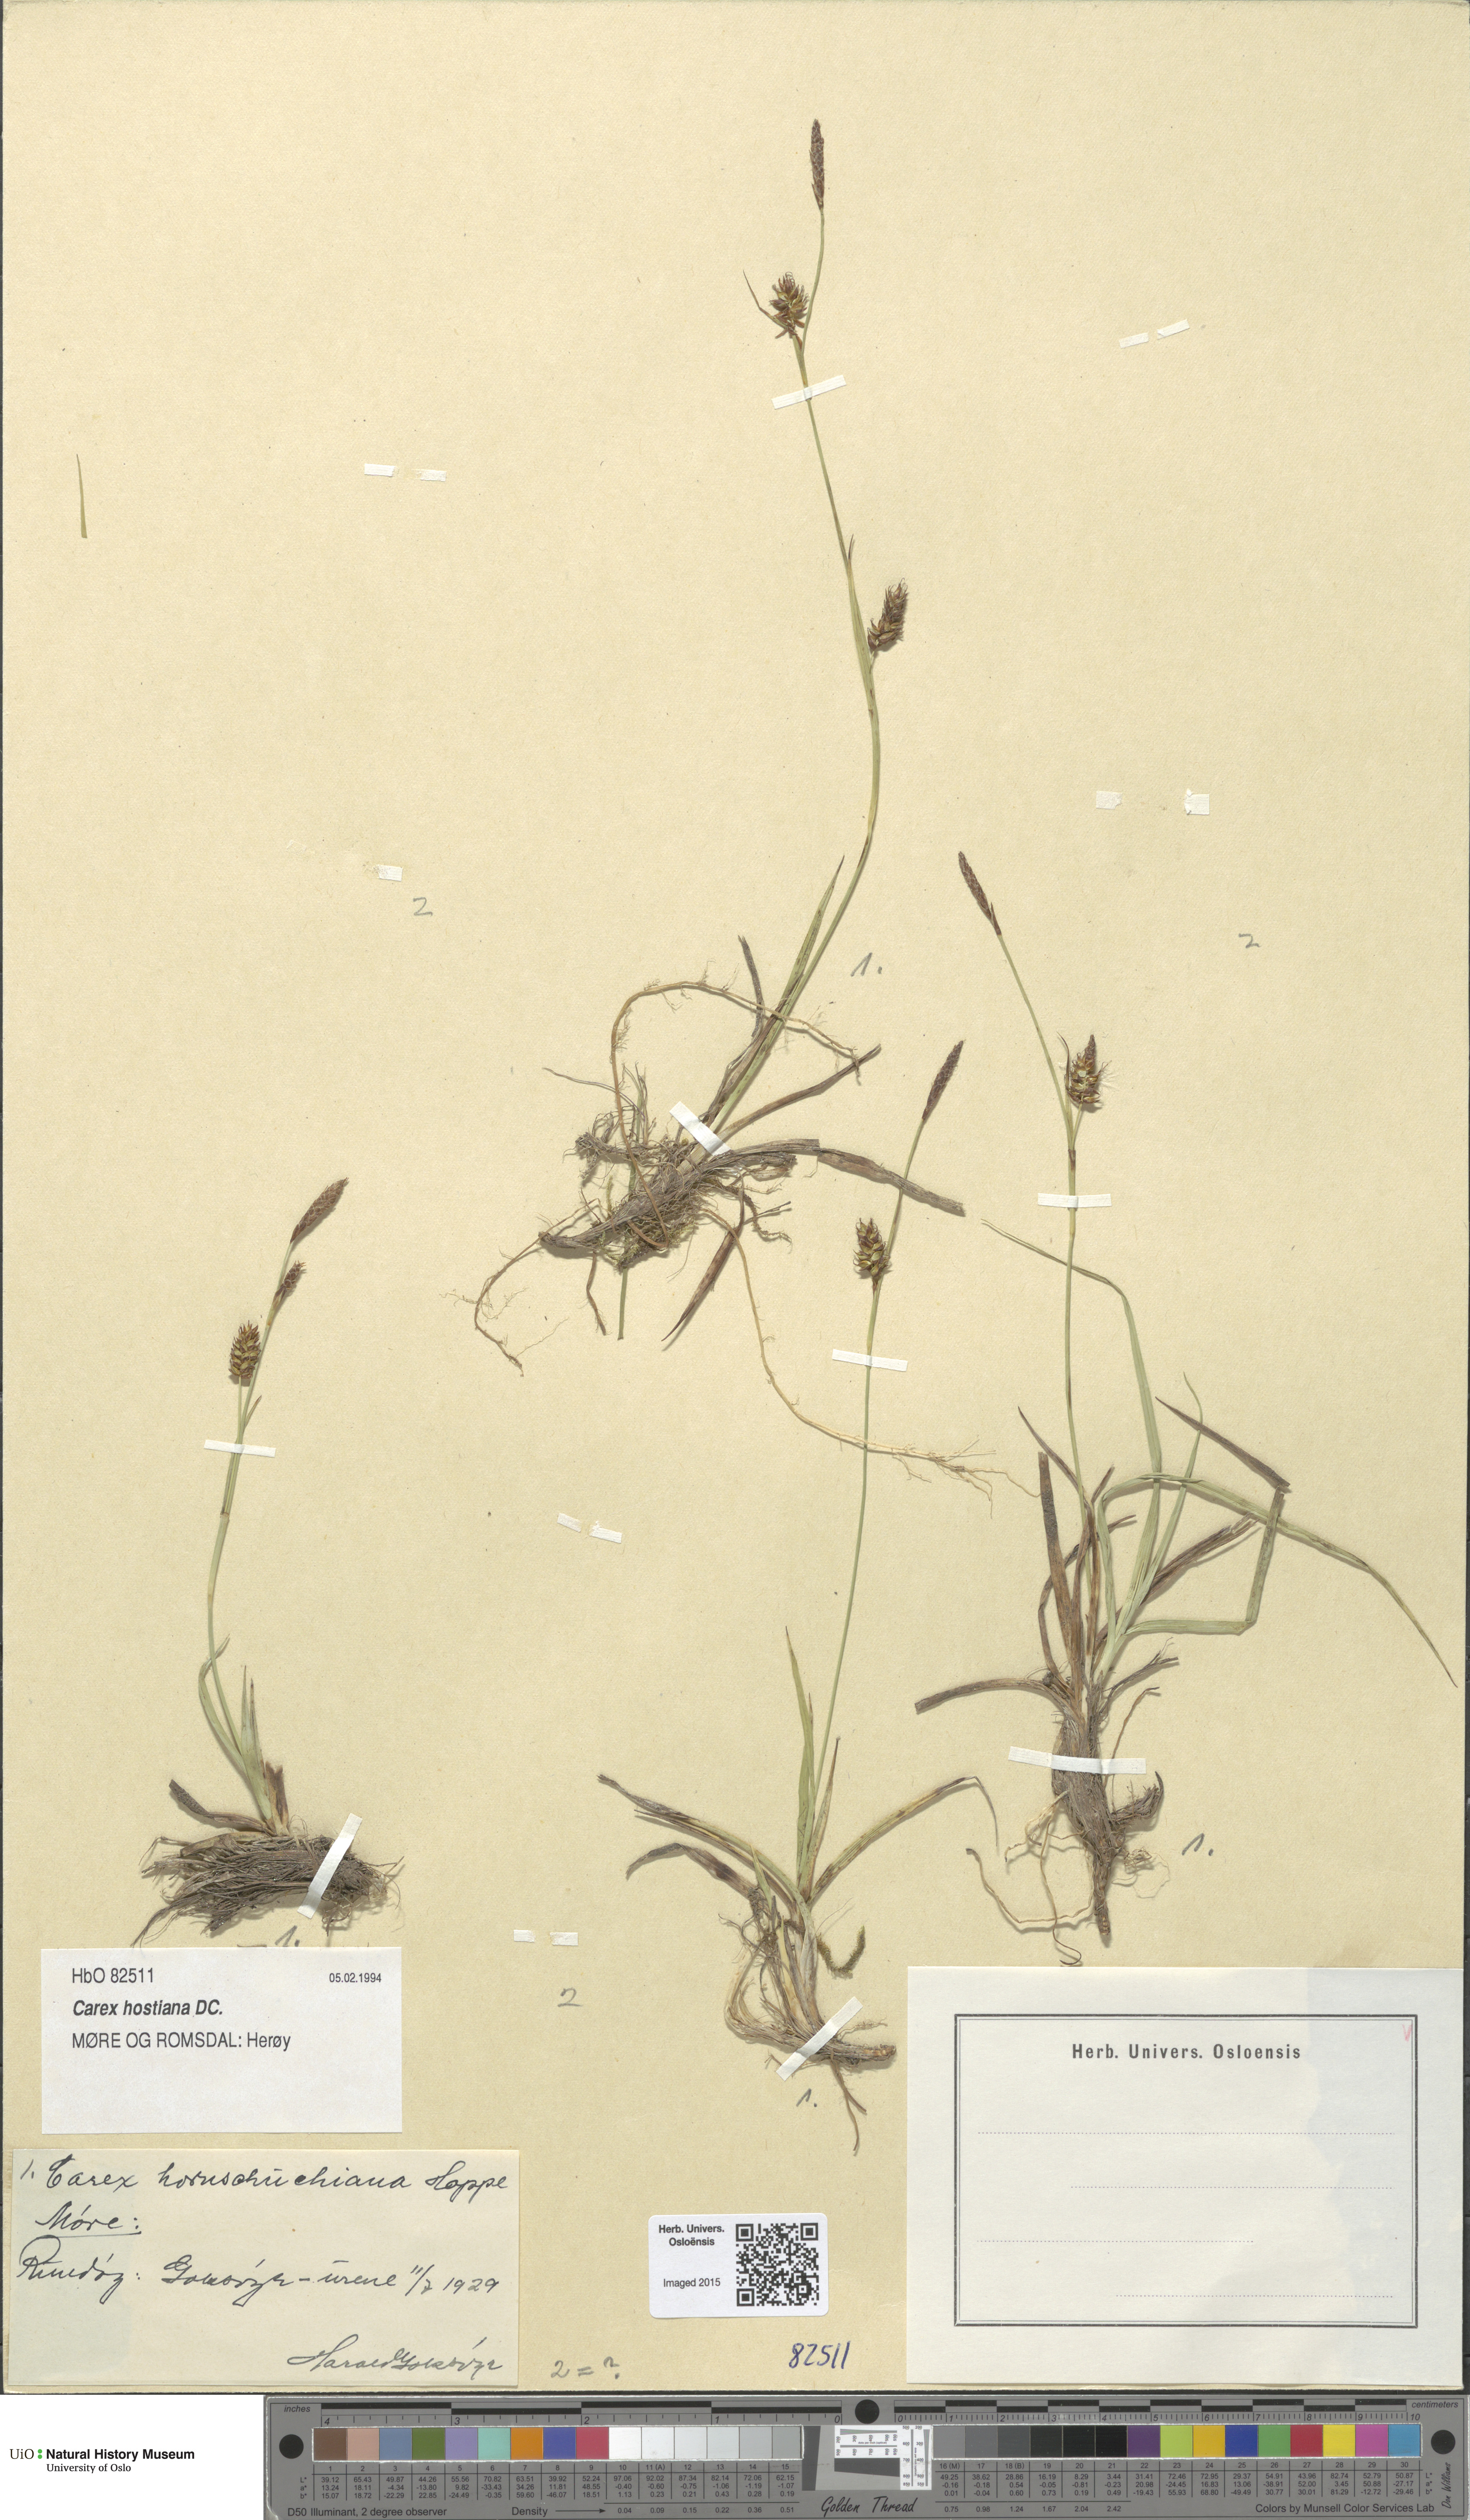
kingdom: Plantae
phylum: Tracheophyta
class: Liliopsida
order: Poales
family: Cyperaceae
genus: Carex
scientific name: Carex hostiana
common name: Tawny sedge
